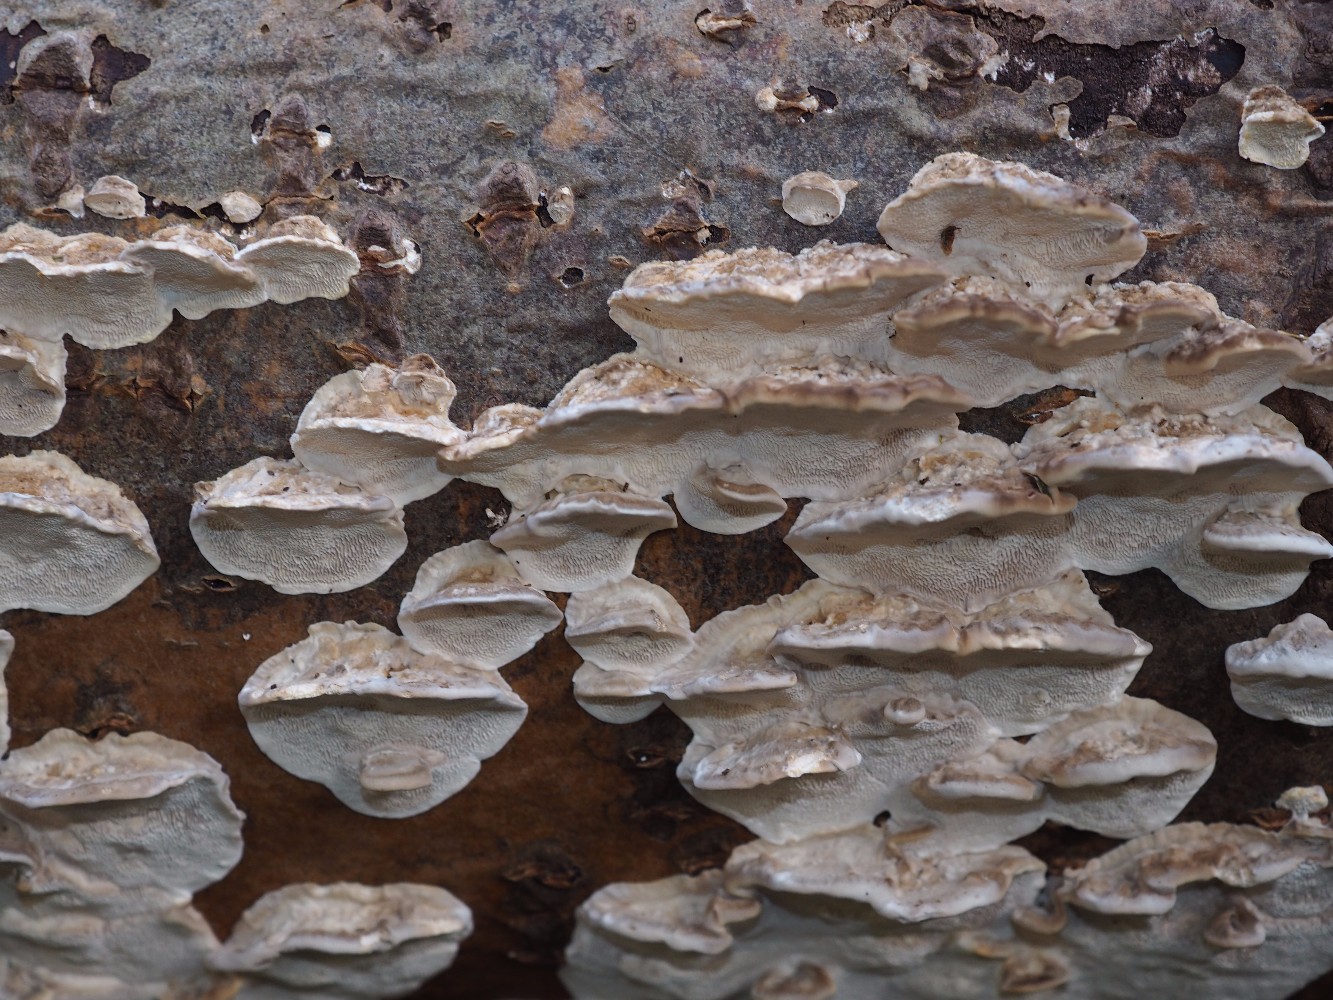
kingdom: Fungi
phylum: Basidiomycota
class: Agaricomycetes
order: Polyporales
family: Phanerochaetaceae
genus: Bjerkandera
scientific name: Bjerkandera fumosa
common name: grågul sodporesvamp
